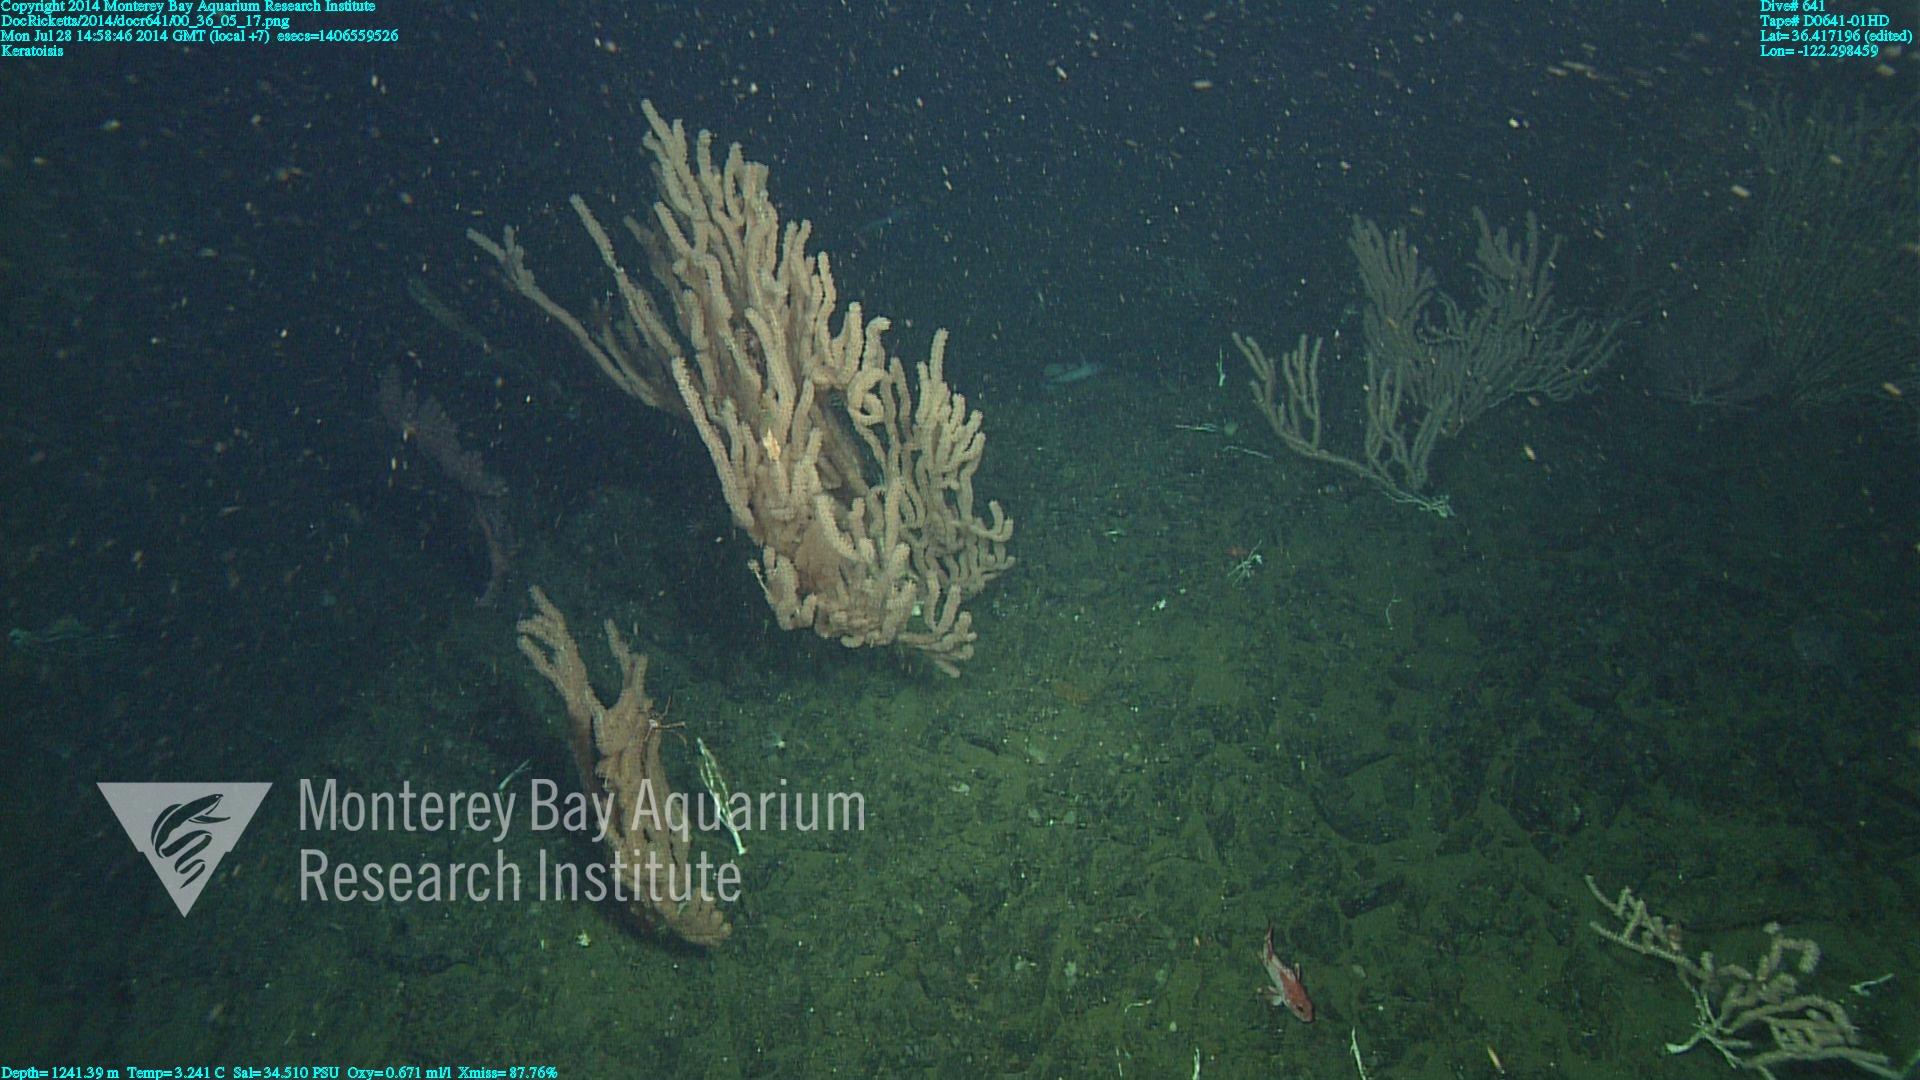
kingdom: Animalia
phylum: Cnidaria
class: Anthozoa
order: Scleralcyonacea
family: Keratoisididae
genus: Keratoisis
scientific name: Keratoisis
